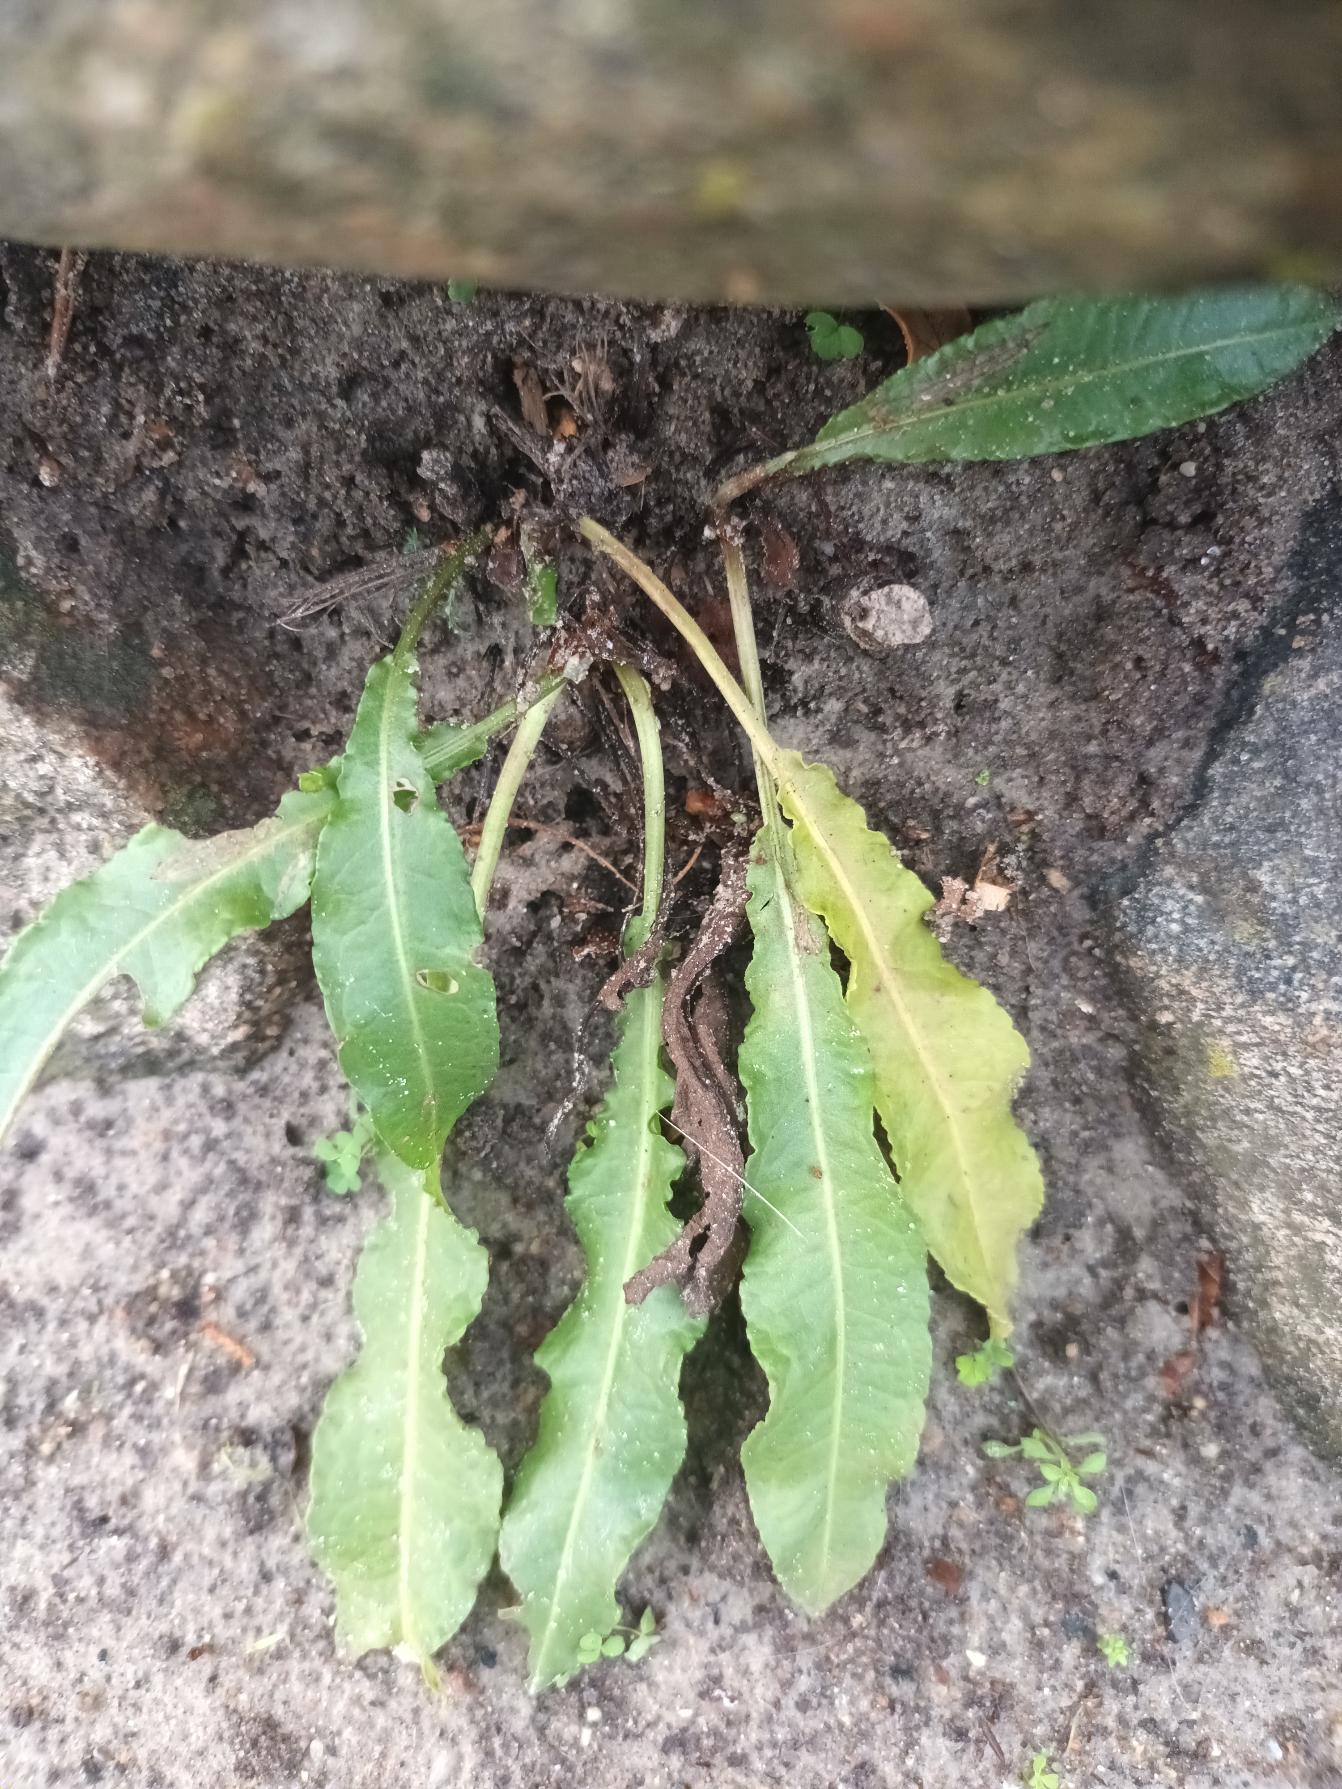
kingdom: Plantae
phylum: Tracheophyta
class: Magnoliopsida
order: Caryophyllales
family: Polygonaceae
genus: Rumex
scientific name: Rumex crispus
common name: Kruset skræppe
